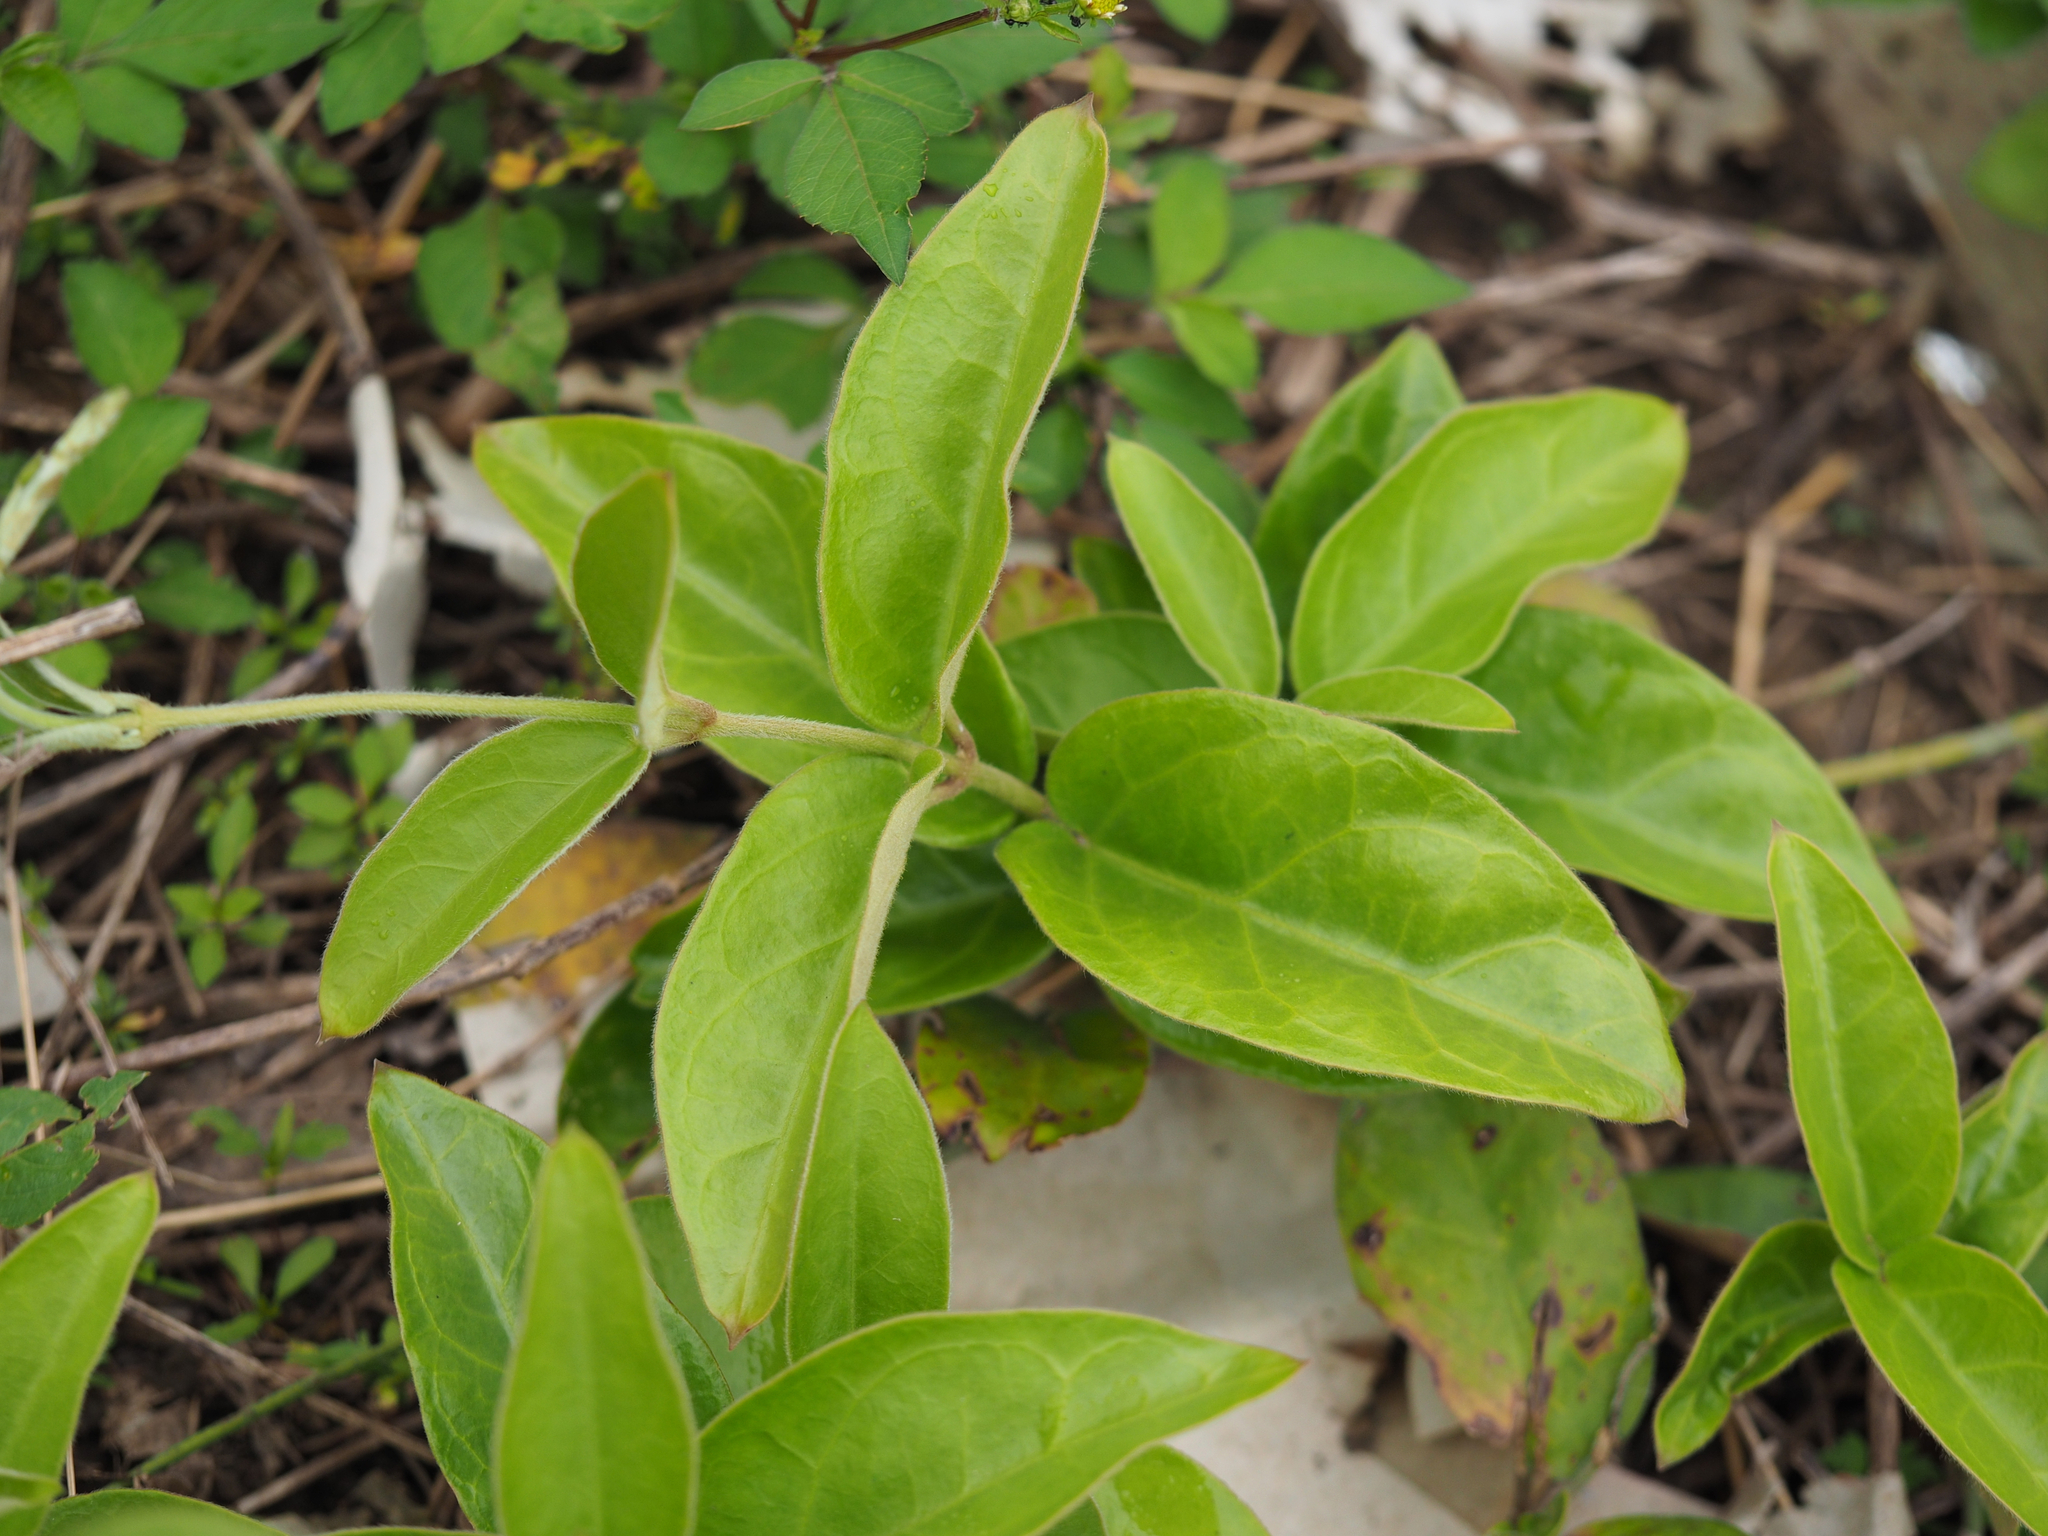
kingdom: Plantae
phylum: Tracheophyta
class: Magnoliopsida
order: Gentianales
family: Apocynaceae
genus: Vincetoxicum
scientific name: Vincetoxicum hirsutum
